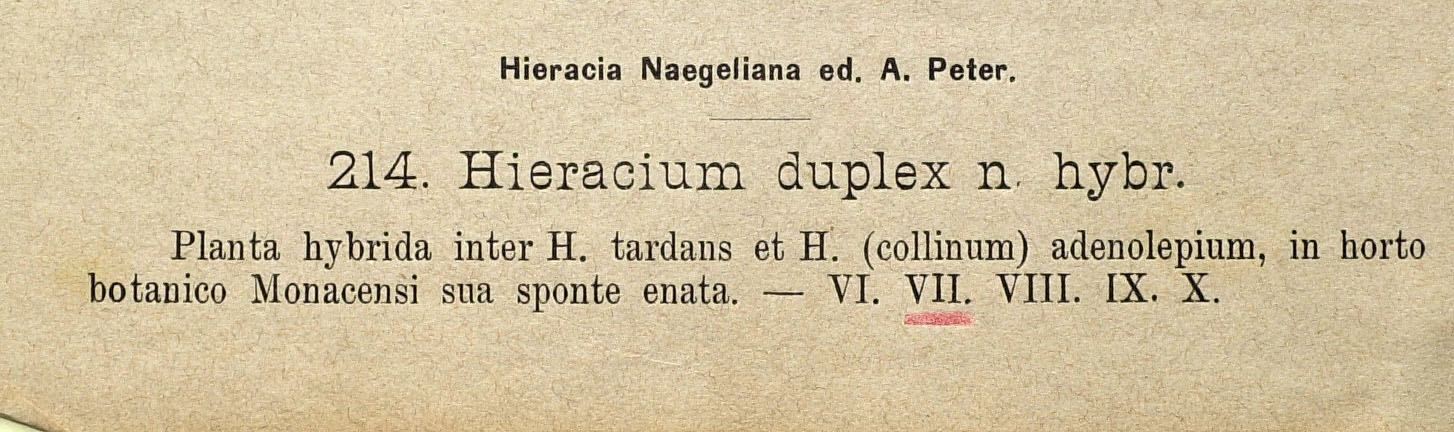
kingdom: Plantae
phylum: Tracheophyta
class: Magnoliopsida
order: Asterales
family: Asteraceae
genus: Pilosella
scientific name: Pilosella prussica
